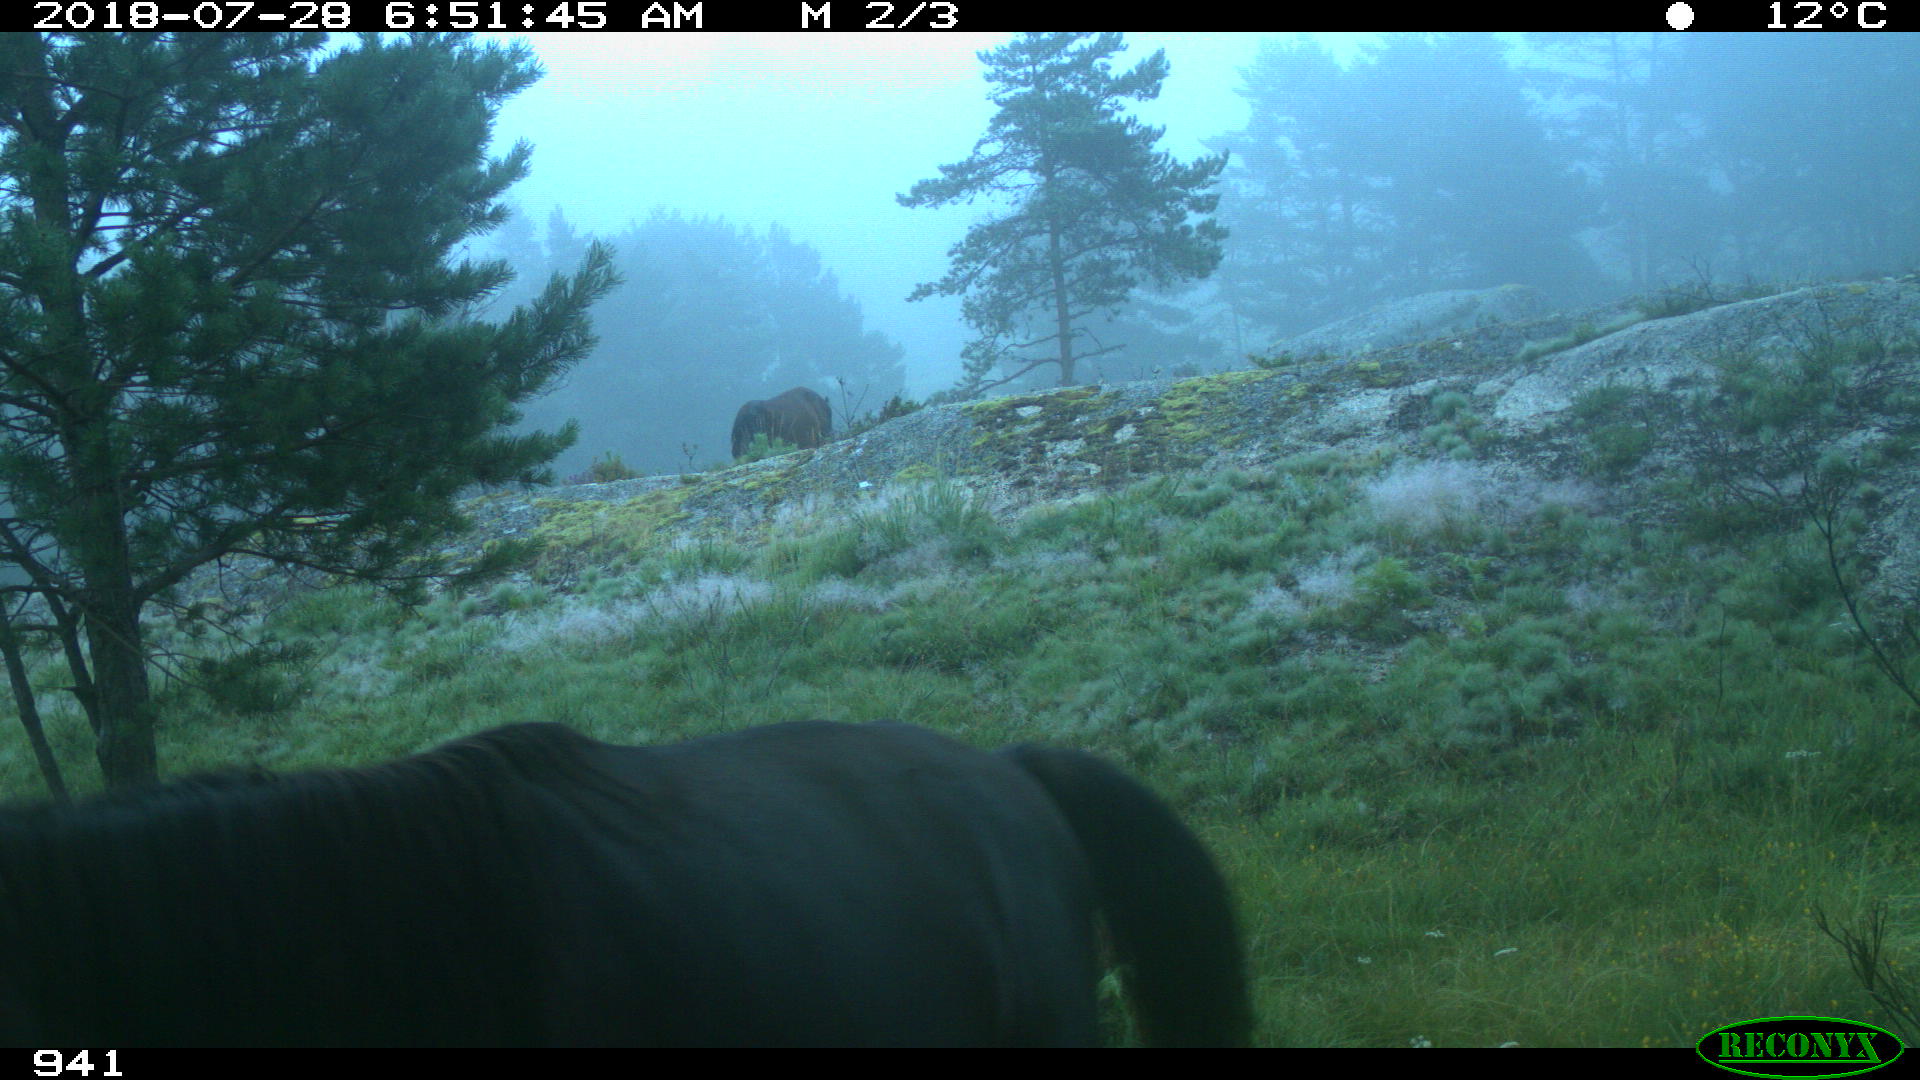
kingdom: Animalia
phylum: Chordata
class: Mammalia
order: Perissodactyla
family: Equidae
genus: Equus
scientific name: Equus caballus
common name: Horse
